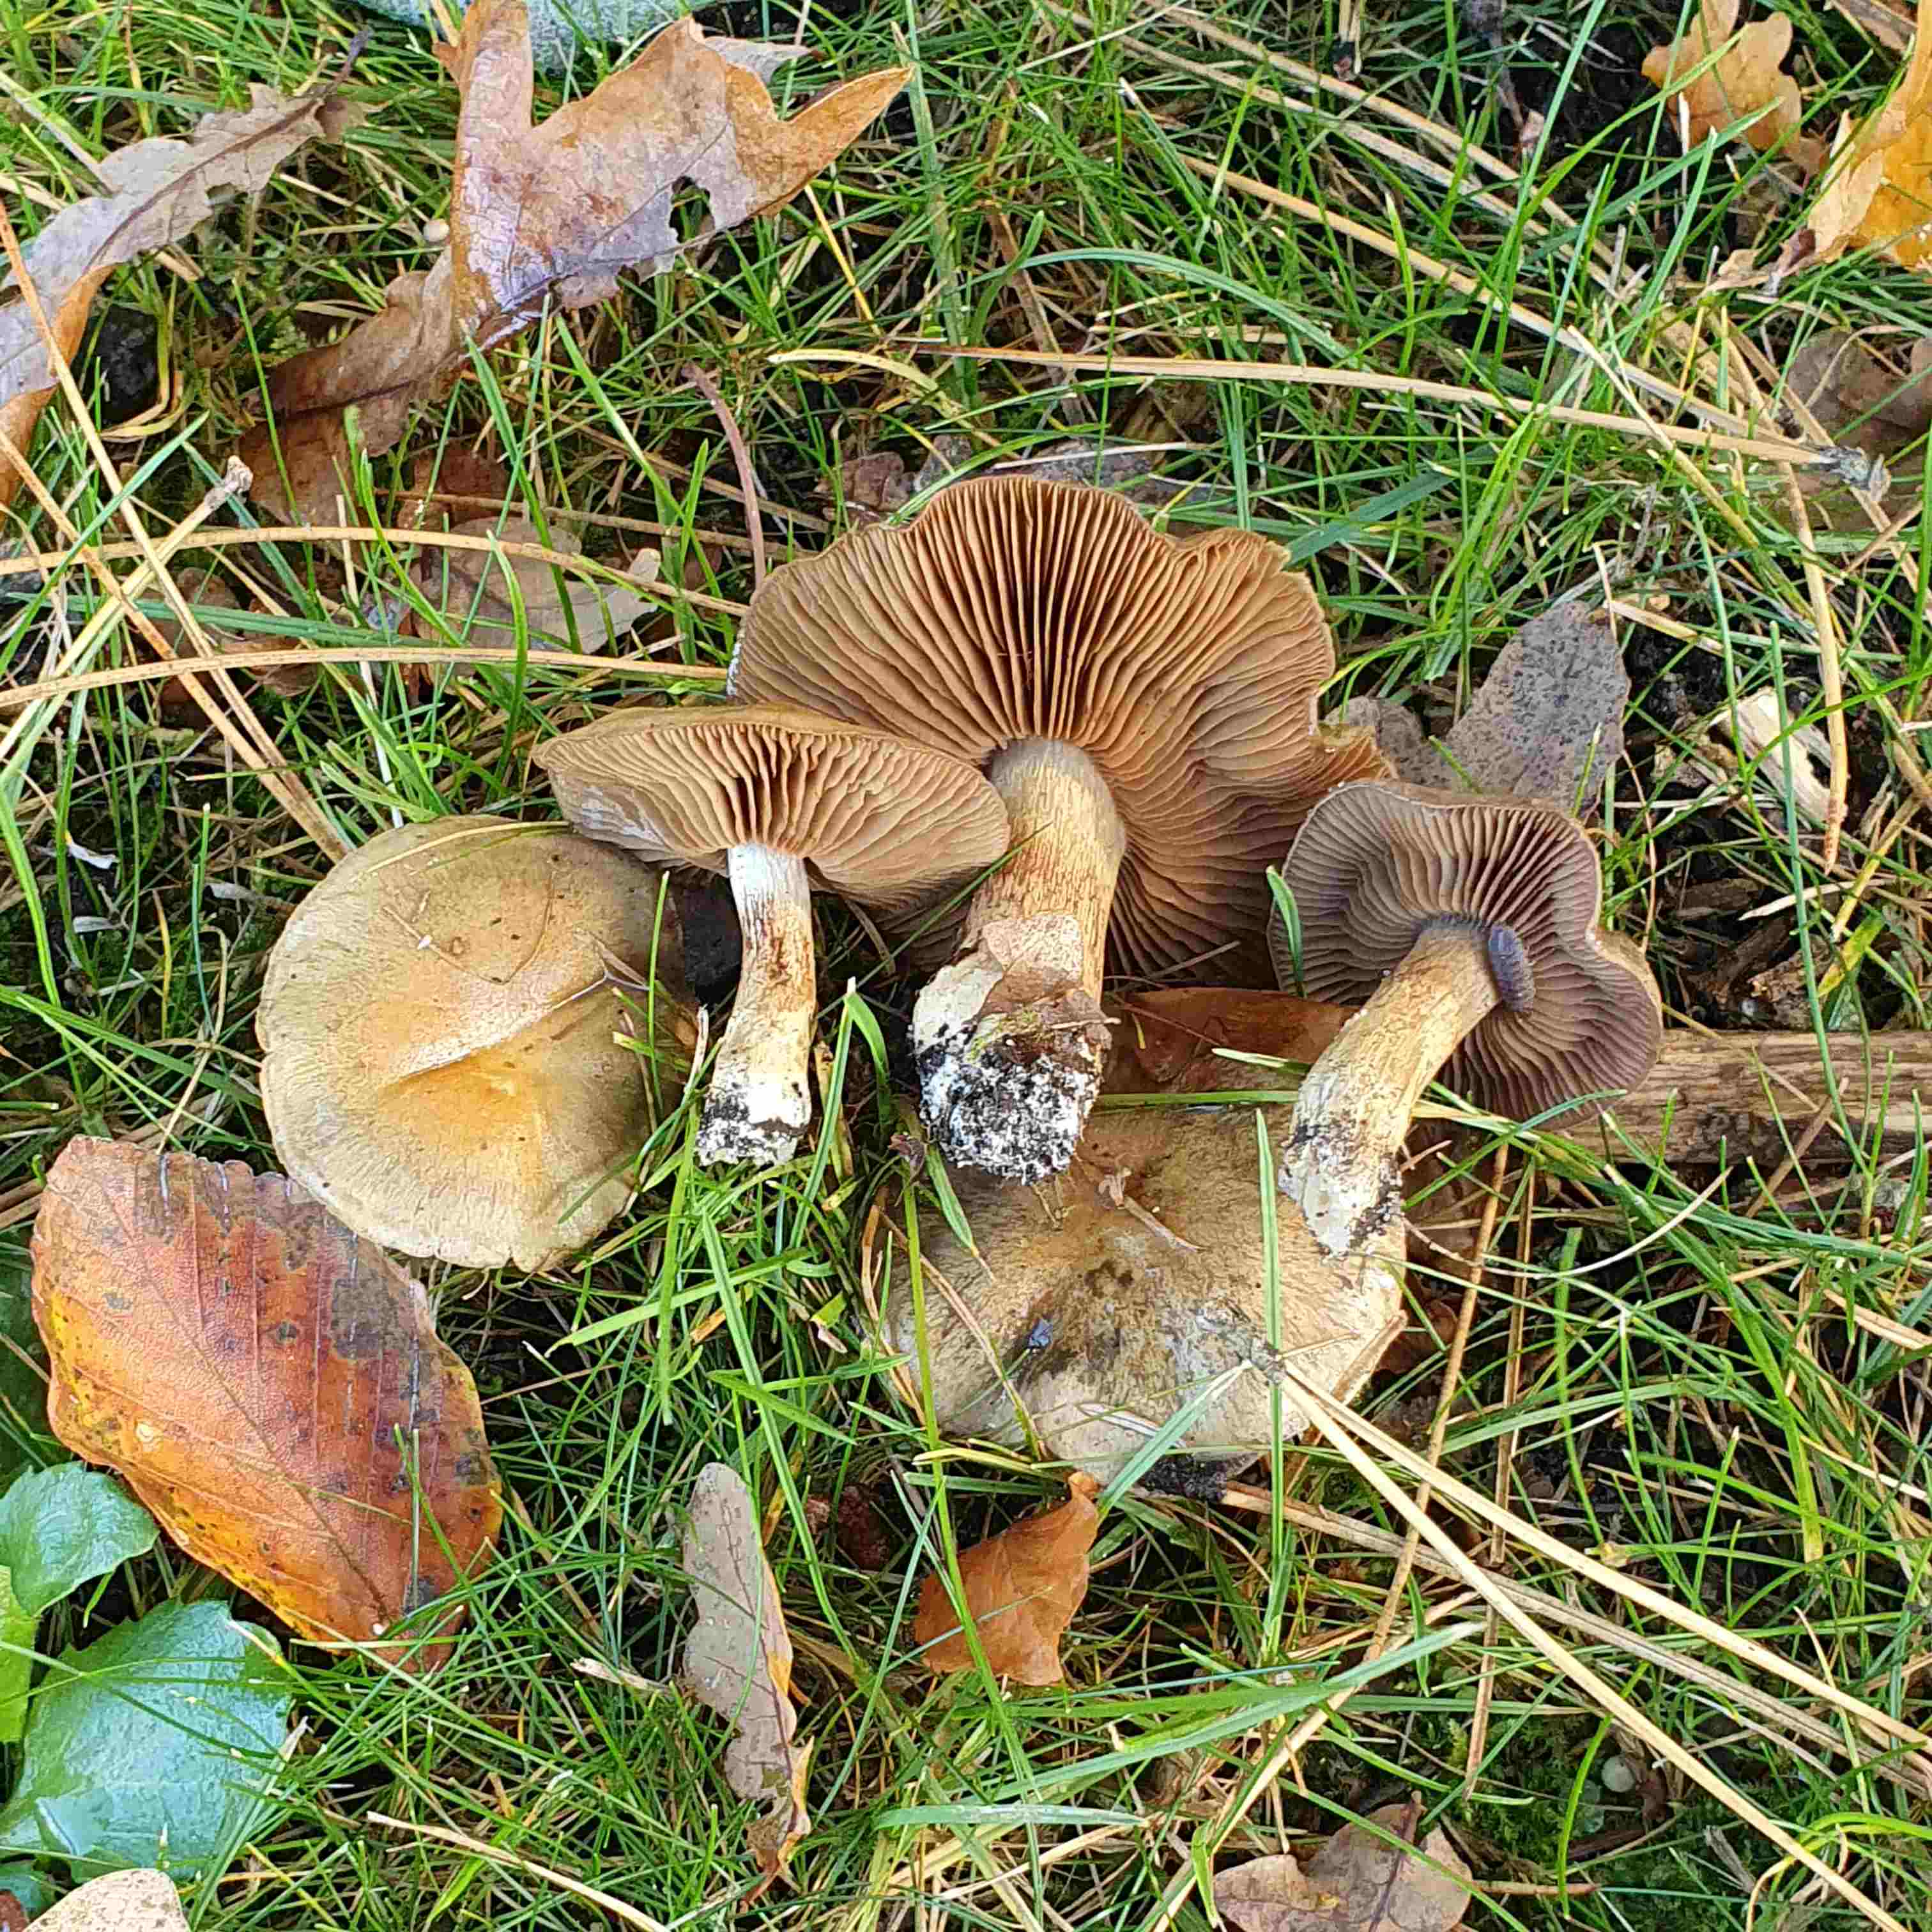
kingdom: Fungi
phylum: Basidiomycota
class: Agaricomycetes
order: Agaricales
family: Cortinariaceae
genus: Cortinarius
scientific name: Cortinarius infractus
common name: galde-slørhat
